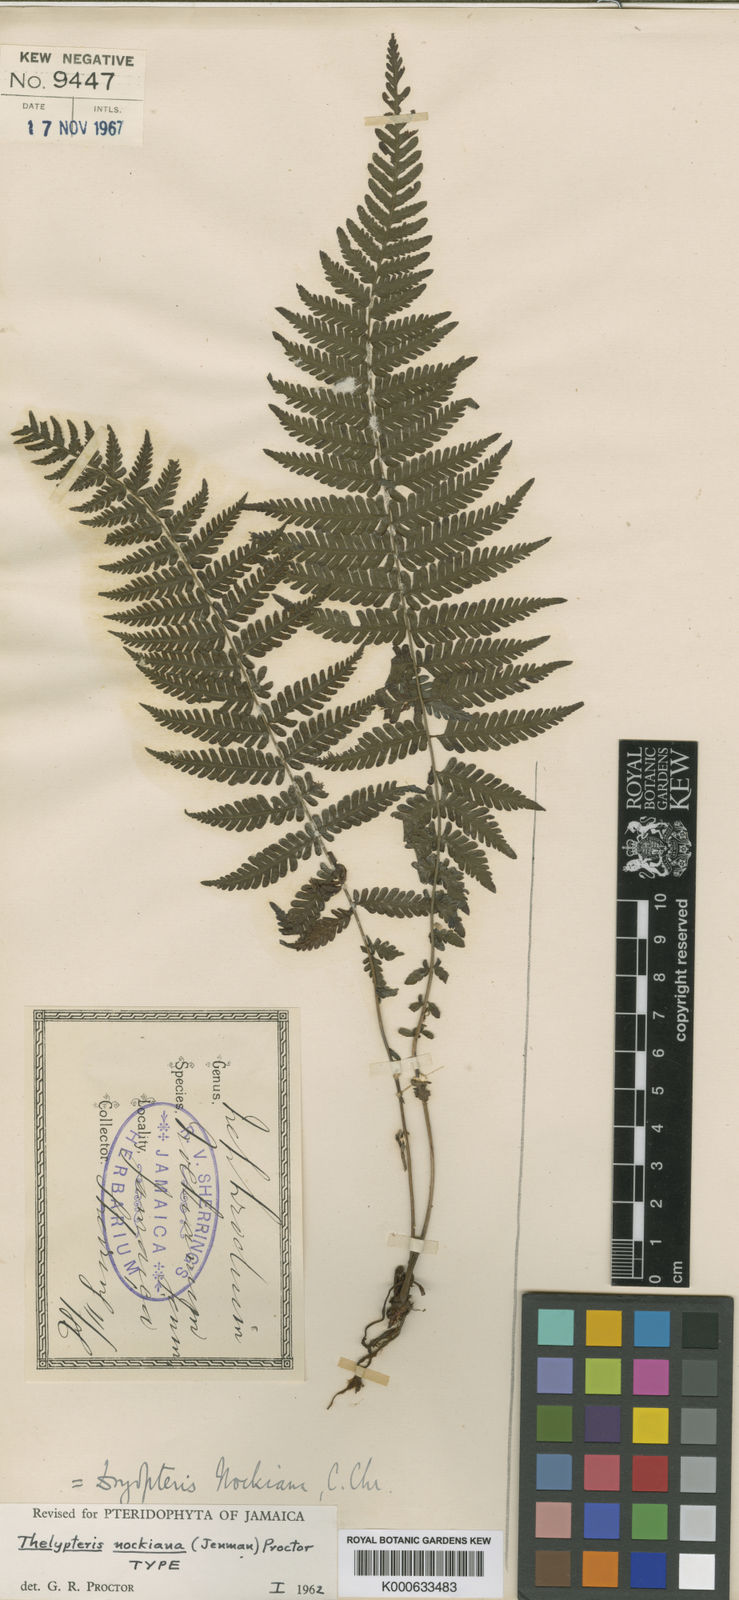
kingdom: Plantae
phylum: Tracheophyta
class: Polypodiopsida
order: Polypodiales
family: Thelypteridaceae
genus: Amauropelta
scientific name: Amauropelta nockiana
